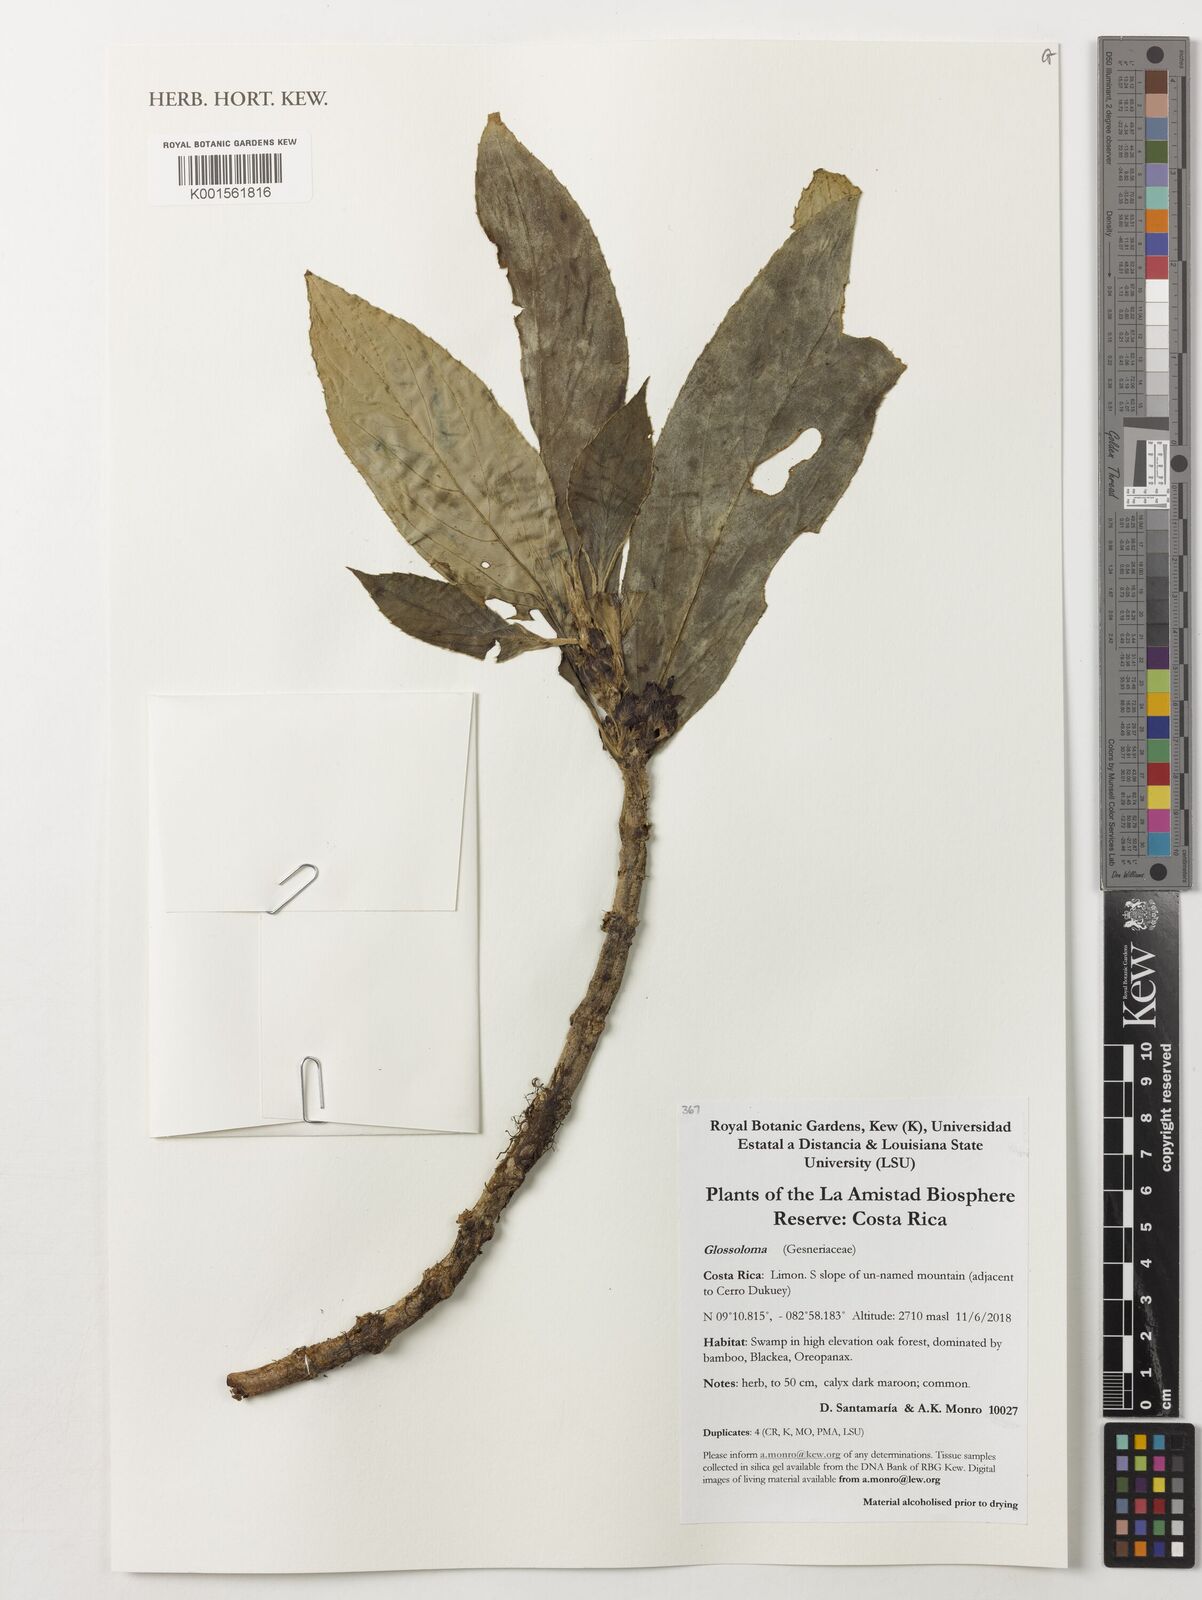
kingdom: Plantae
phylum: Tracheophyta
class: Magnoliopsida
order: Lamiales
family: Gesneriaceae
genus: Glossoloma
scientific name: Glossoloma
